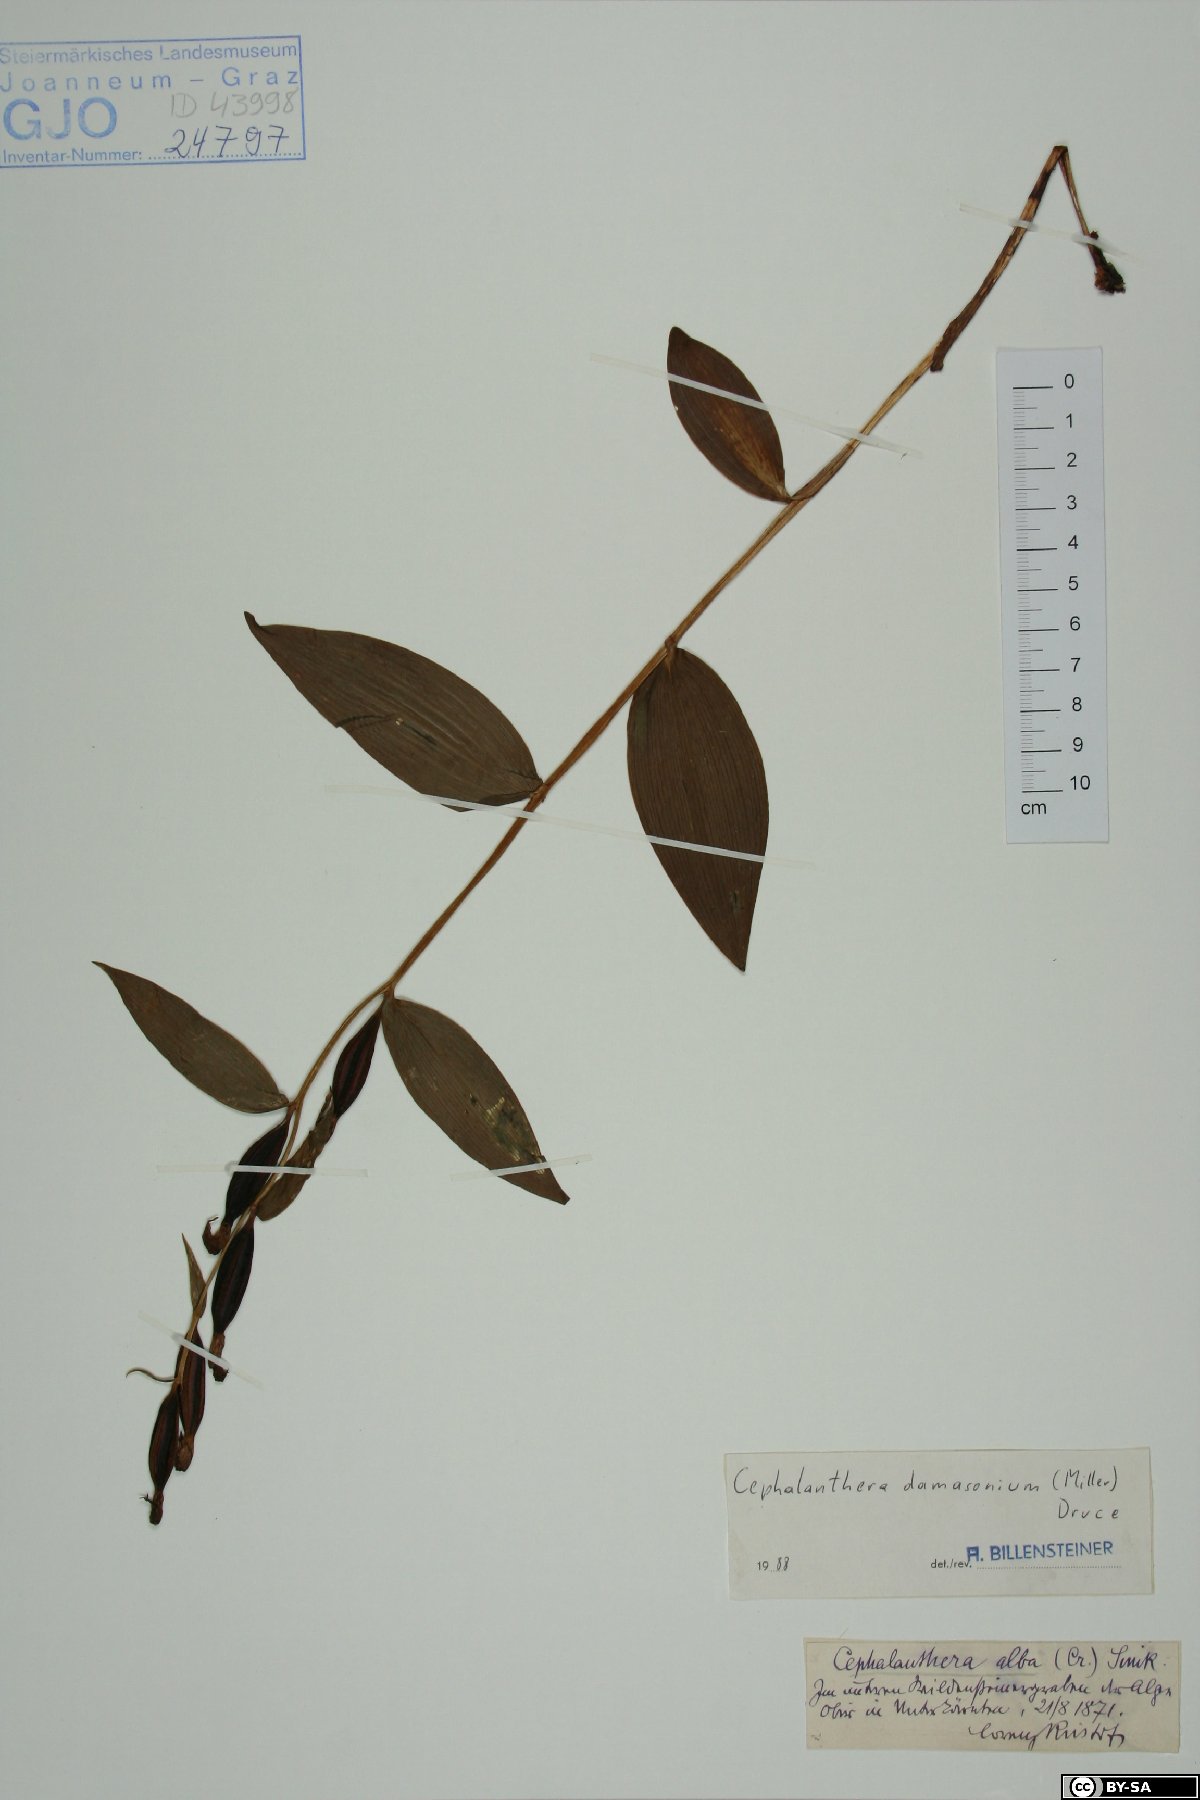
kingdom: Plantae
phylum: Tracheophyta
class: Liliopsida
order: Asparagales
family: Orchidaceae
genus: Cephalanthera
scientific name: Cephalanthera damasonium
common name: White helleborine
